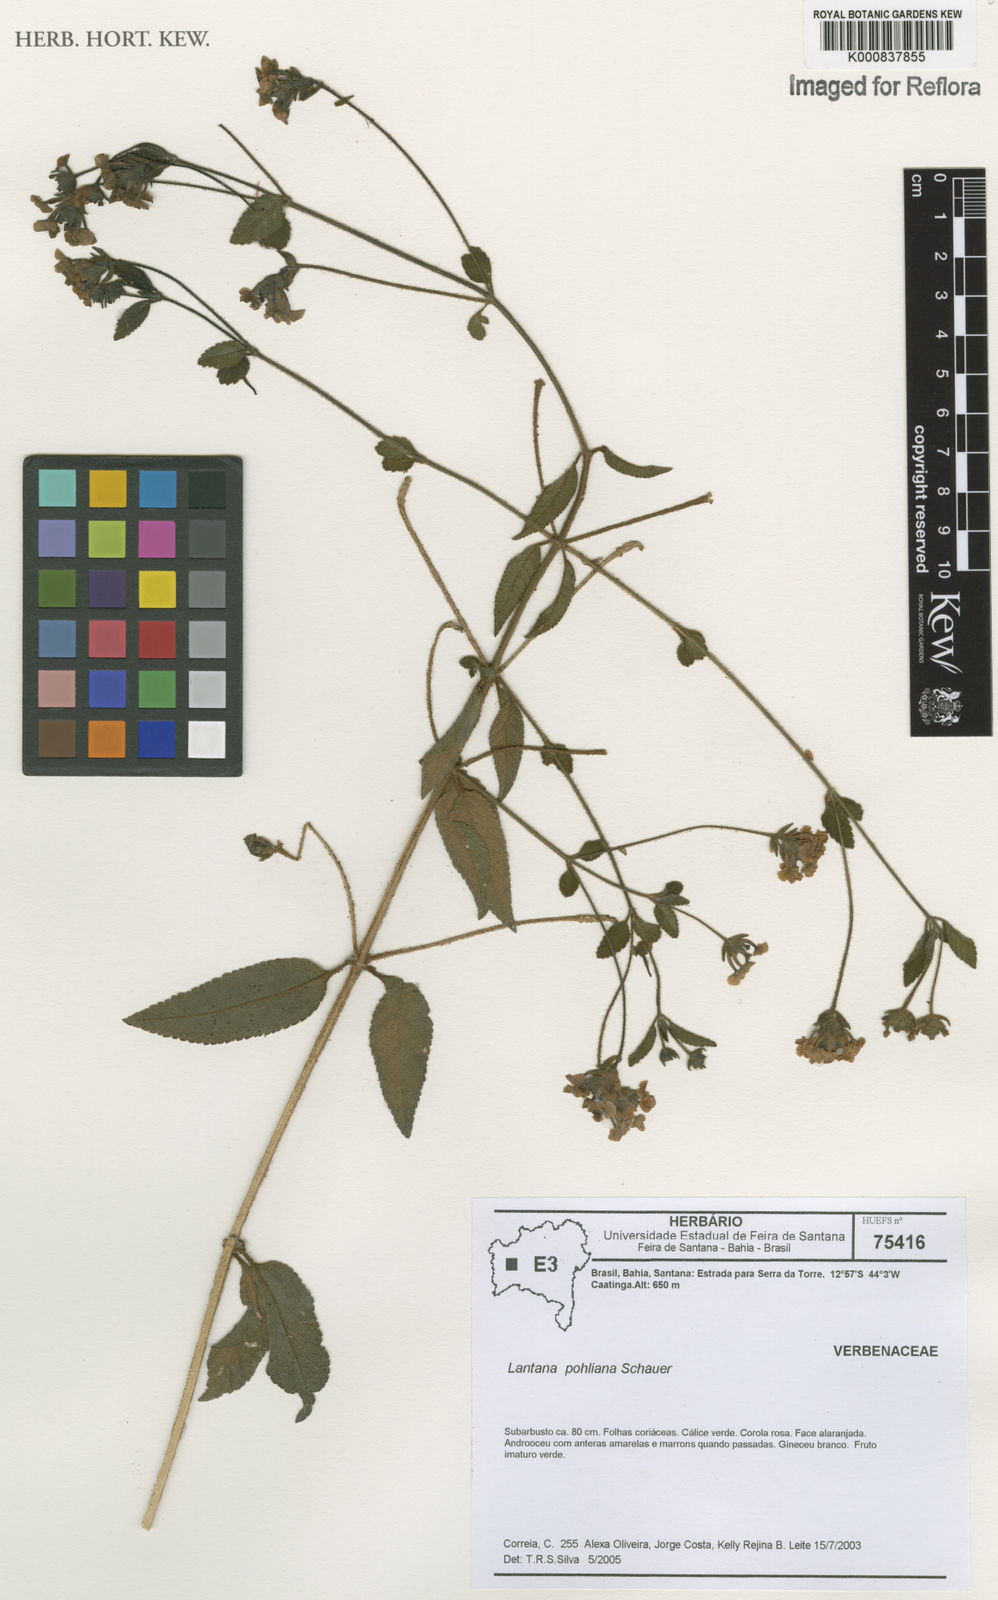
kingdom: Plantae
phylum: Tracheophyta
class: Magnoliopsida
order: Lamiales
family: Verbenaceae
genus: Lantana
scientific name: Lantana pohliana
